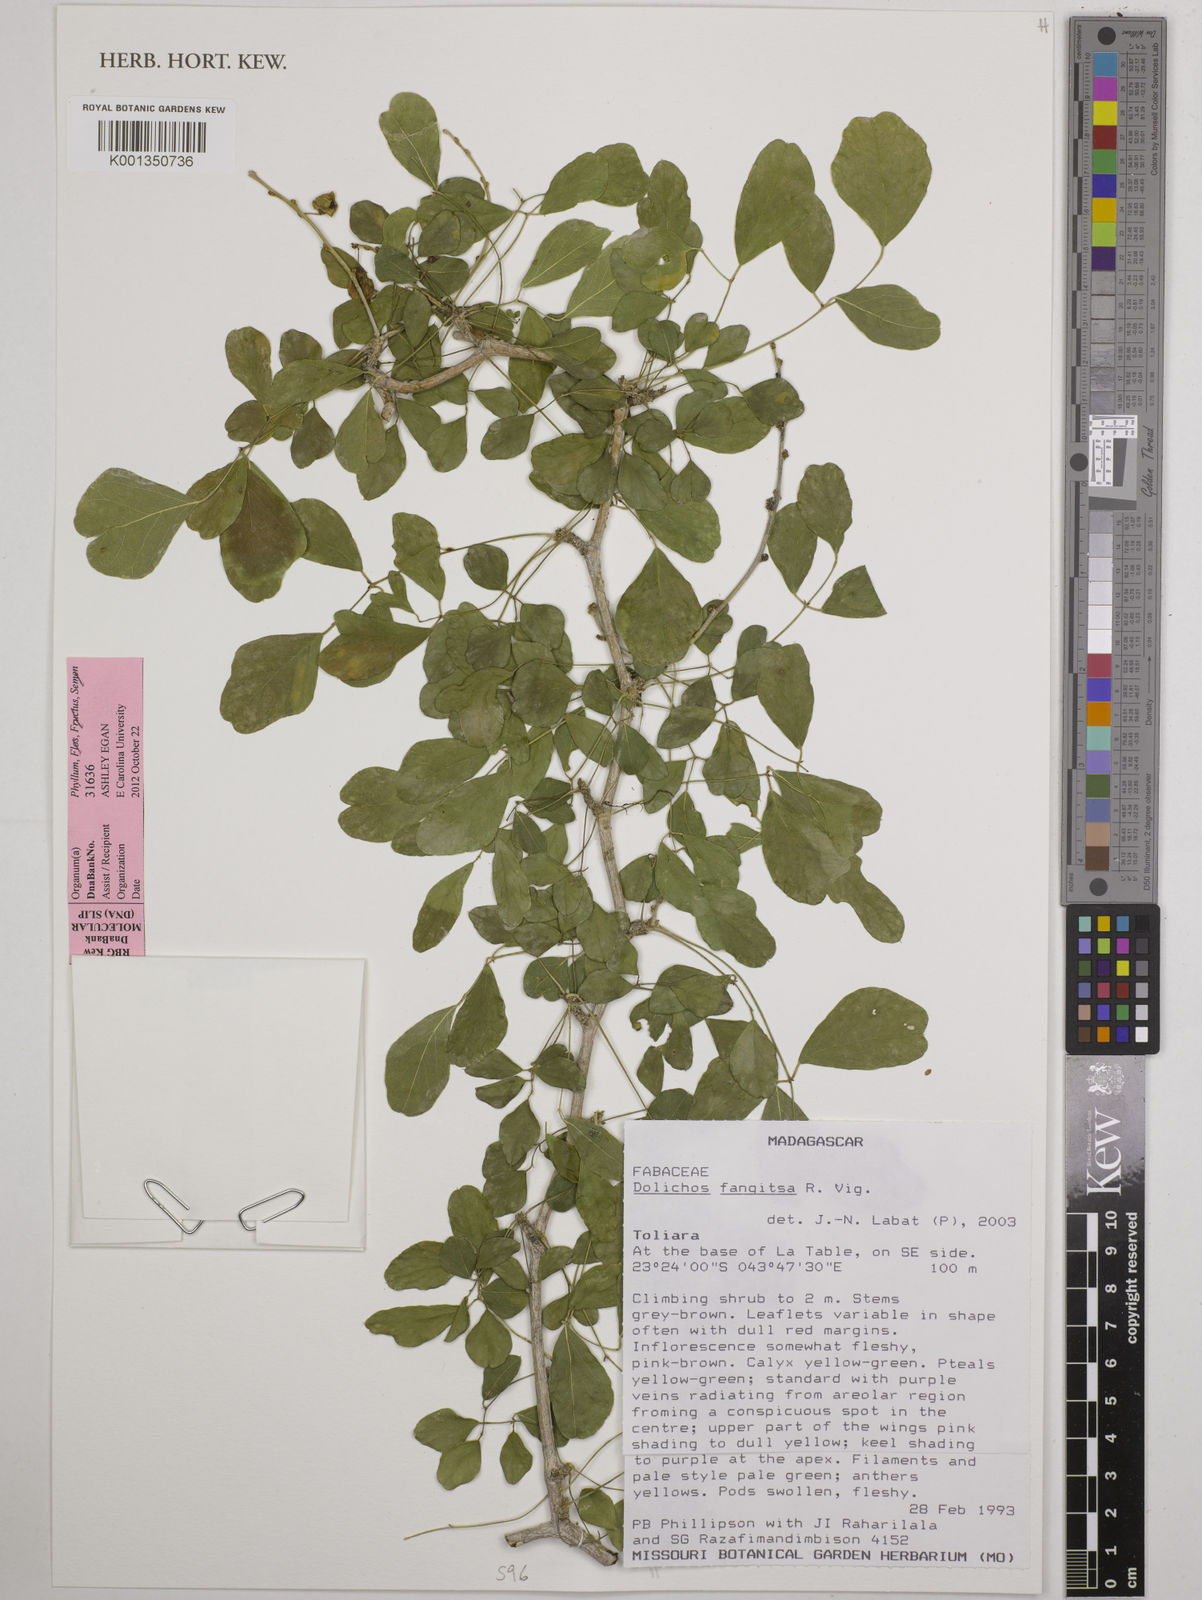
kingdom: Plantae
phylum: Tracheophyta
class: Magnoliopsida
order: Fabales
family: Fabaceae
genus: Dolichos
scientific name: Dolichos fangitsa
